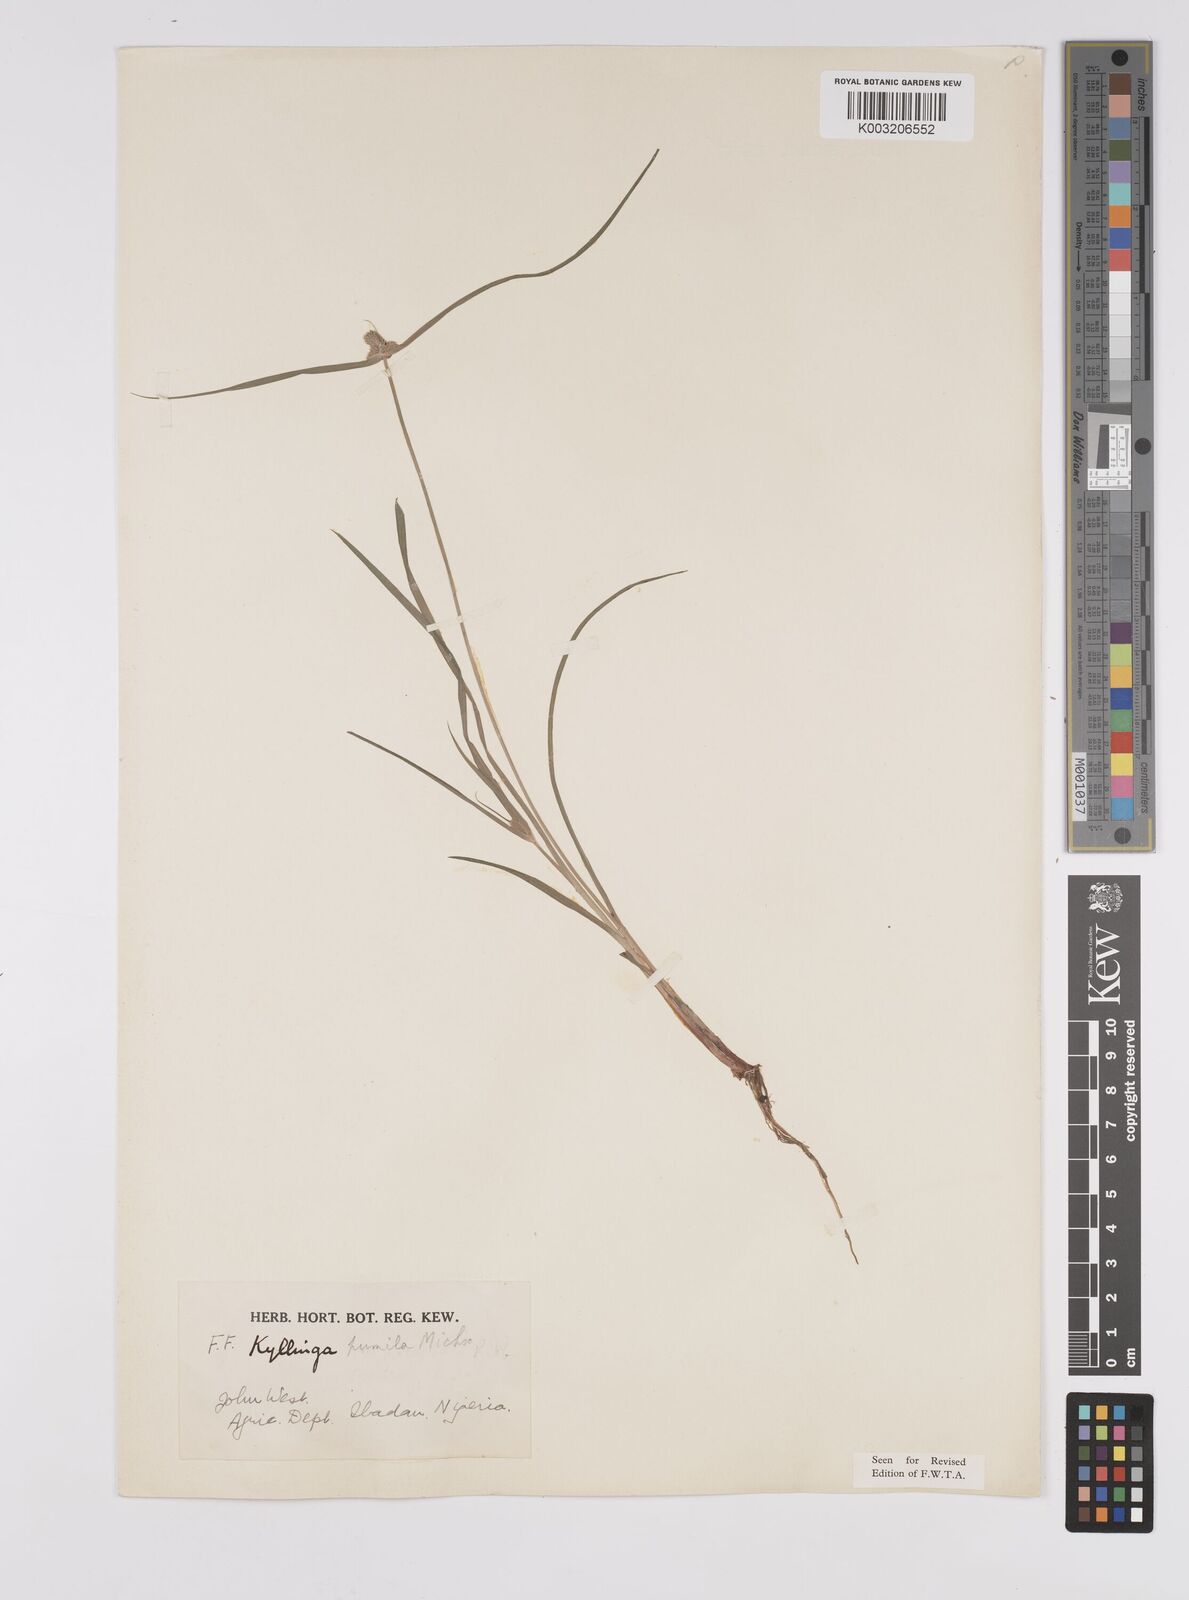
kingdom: Plantae
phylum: Tracheophyta
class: Liliopsida
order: Poales
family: Cyperaceae
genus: Cyperus
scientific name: Cyperus
